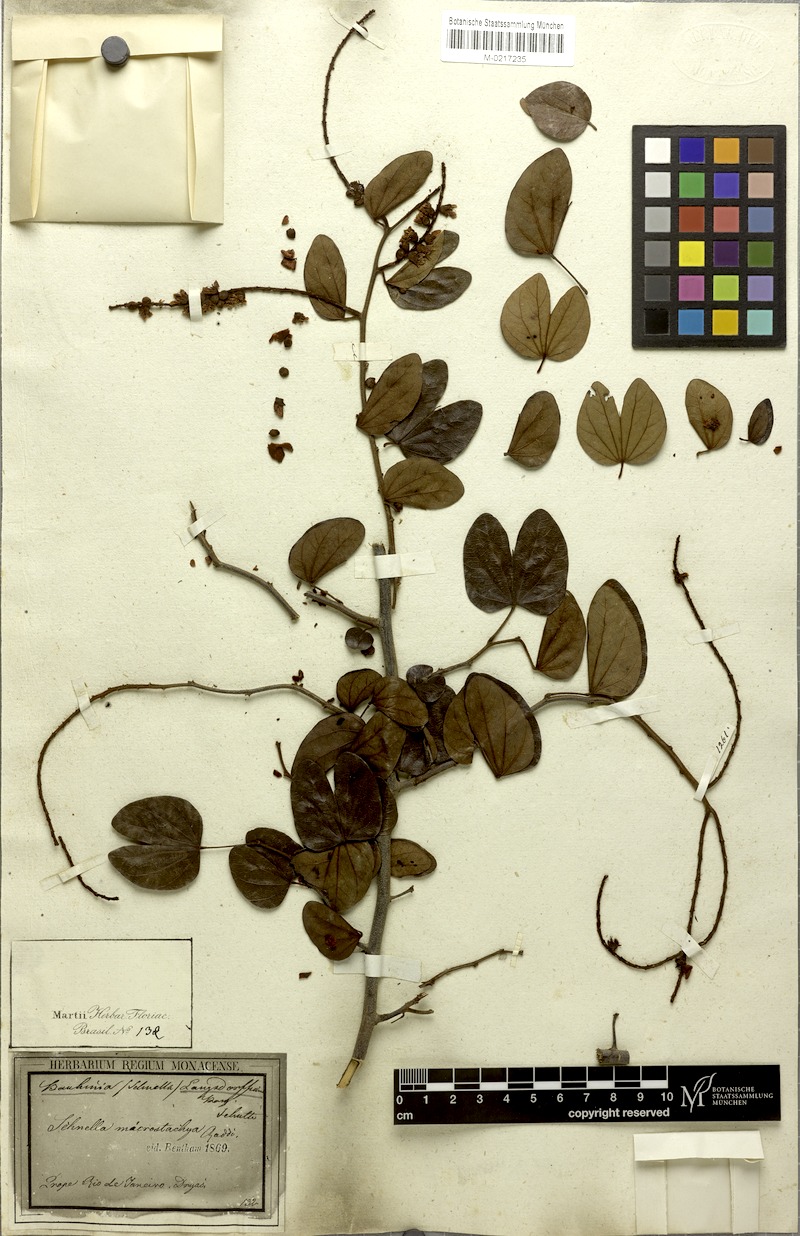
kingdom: Plantae
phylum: Tracheophyta
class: Magnoliopsida
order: Fabales
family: Fabaceae
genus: Schnella
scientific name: Schnella microstachya
